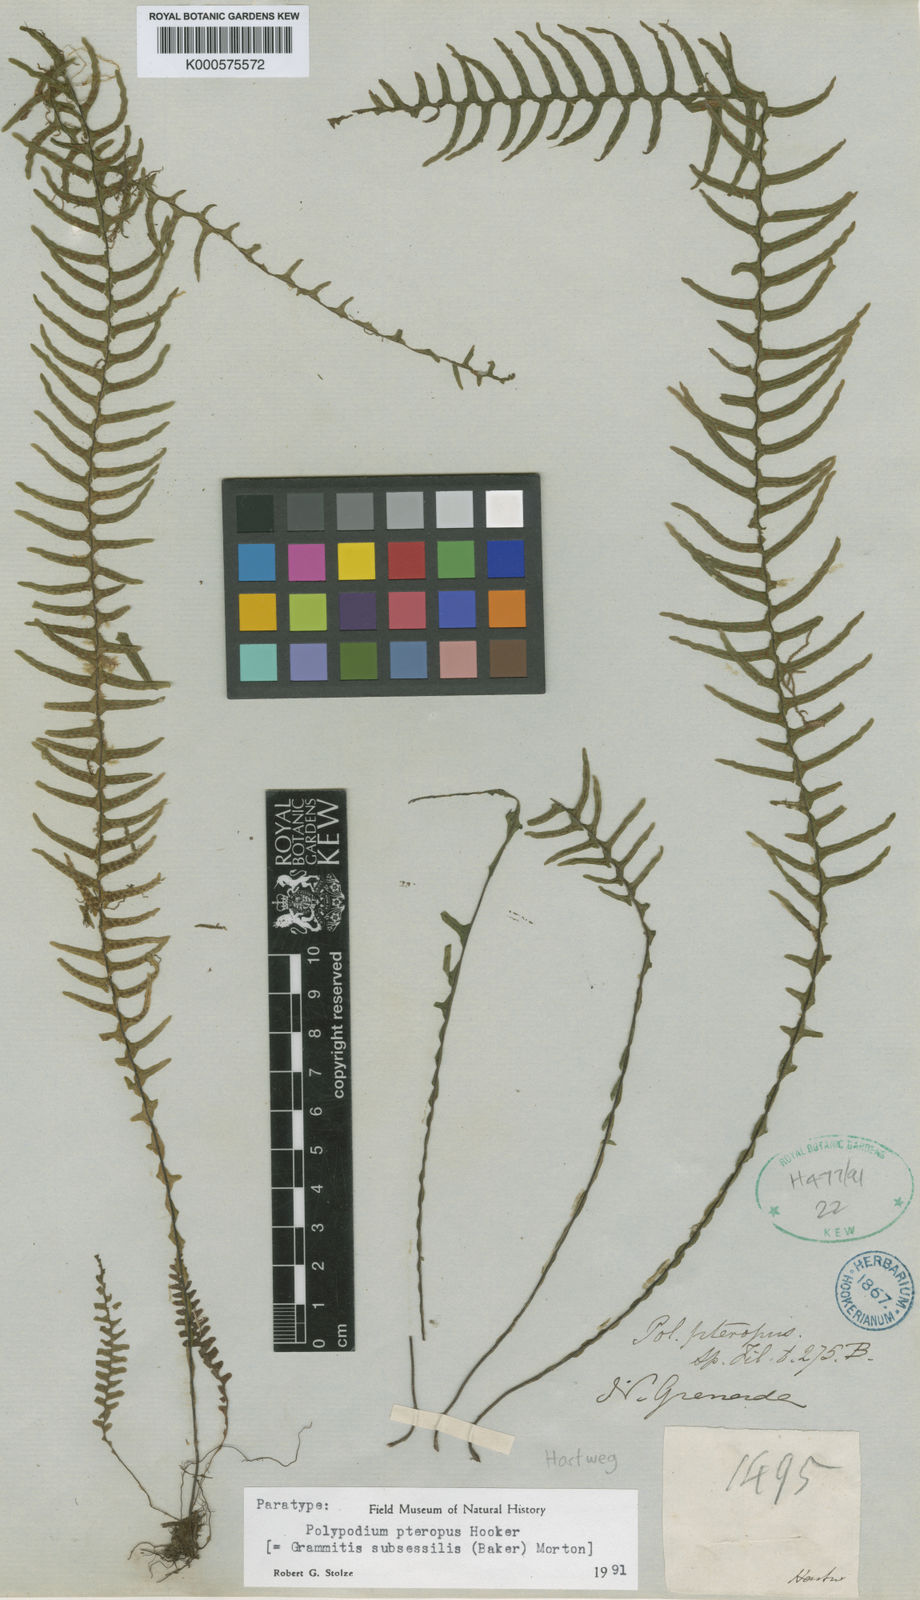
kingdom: Plantae
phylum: Tracheophyta
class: Polypodiopsida
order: Polypodiales
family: Polypodiaceae
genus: Lellingeria
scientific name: Lellingeria subsessilis
